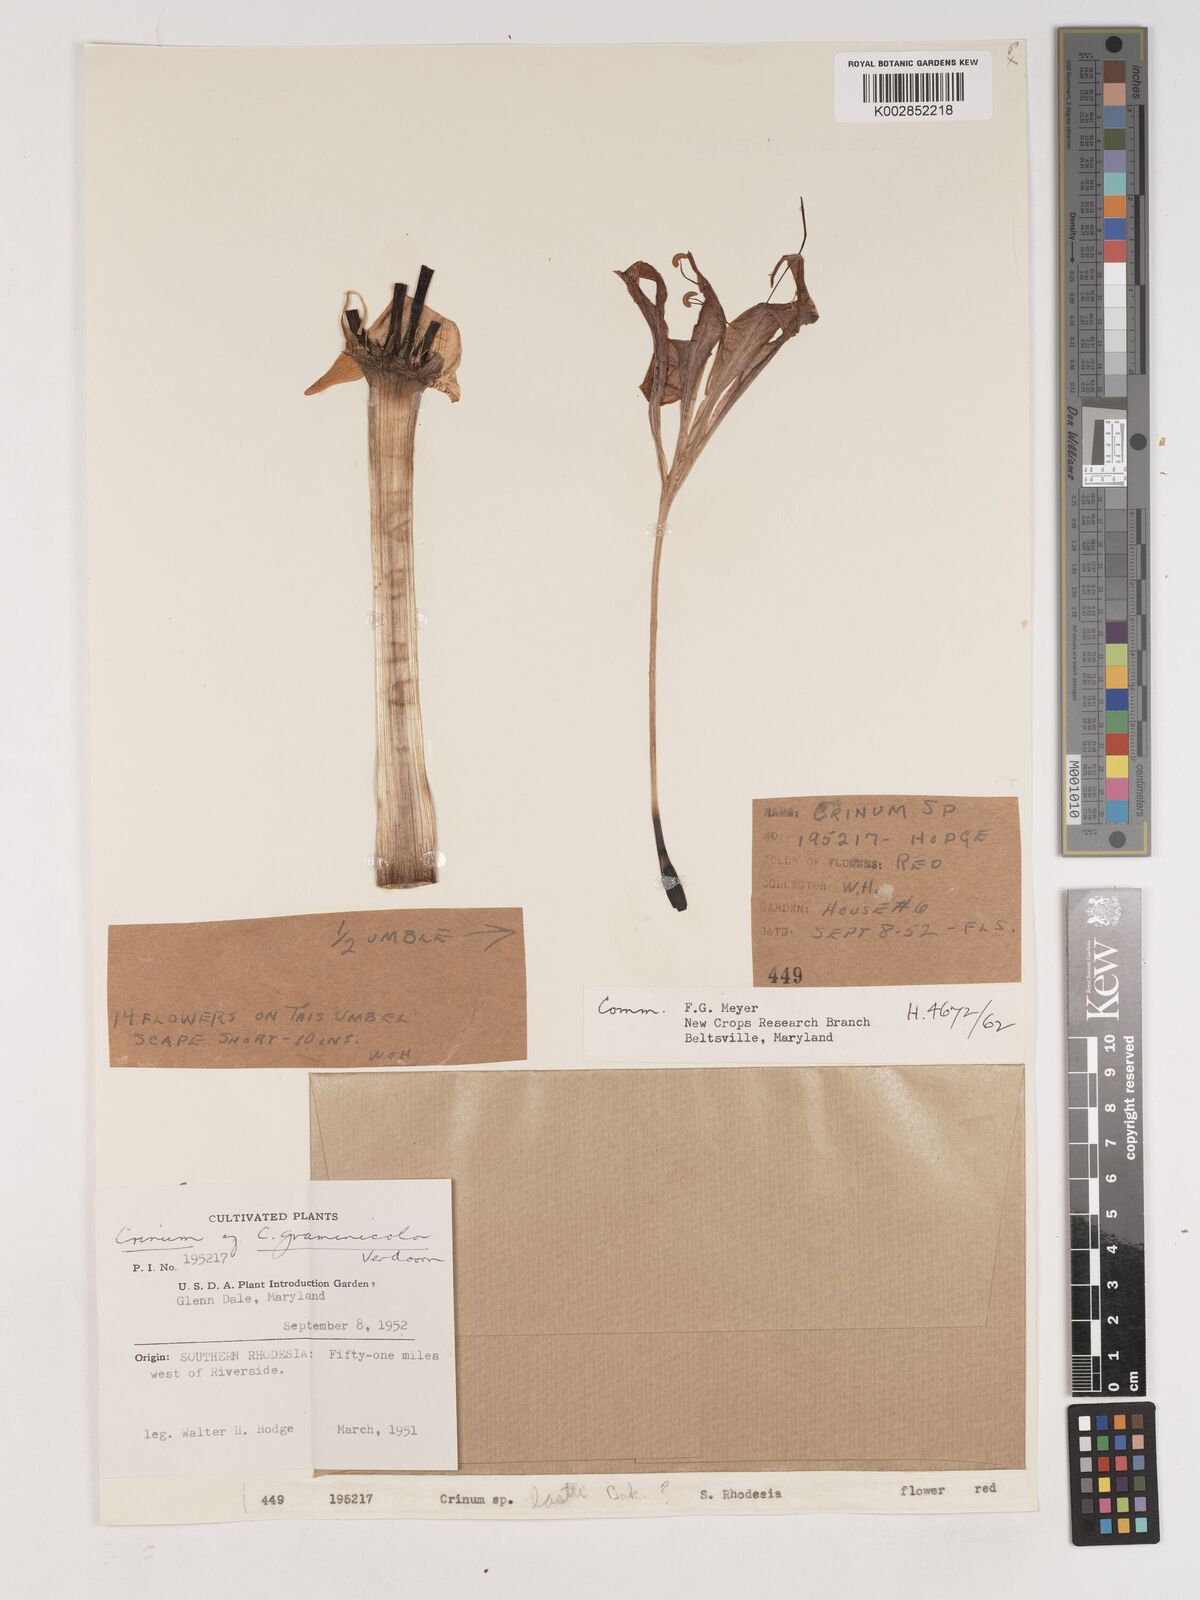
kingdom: Plantae
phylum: Tracheophyta
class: Liliopsida
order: Asparagales
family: Amaryllidaceae
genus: Crinum
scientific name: Crinum graminicola
